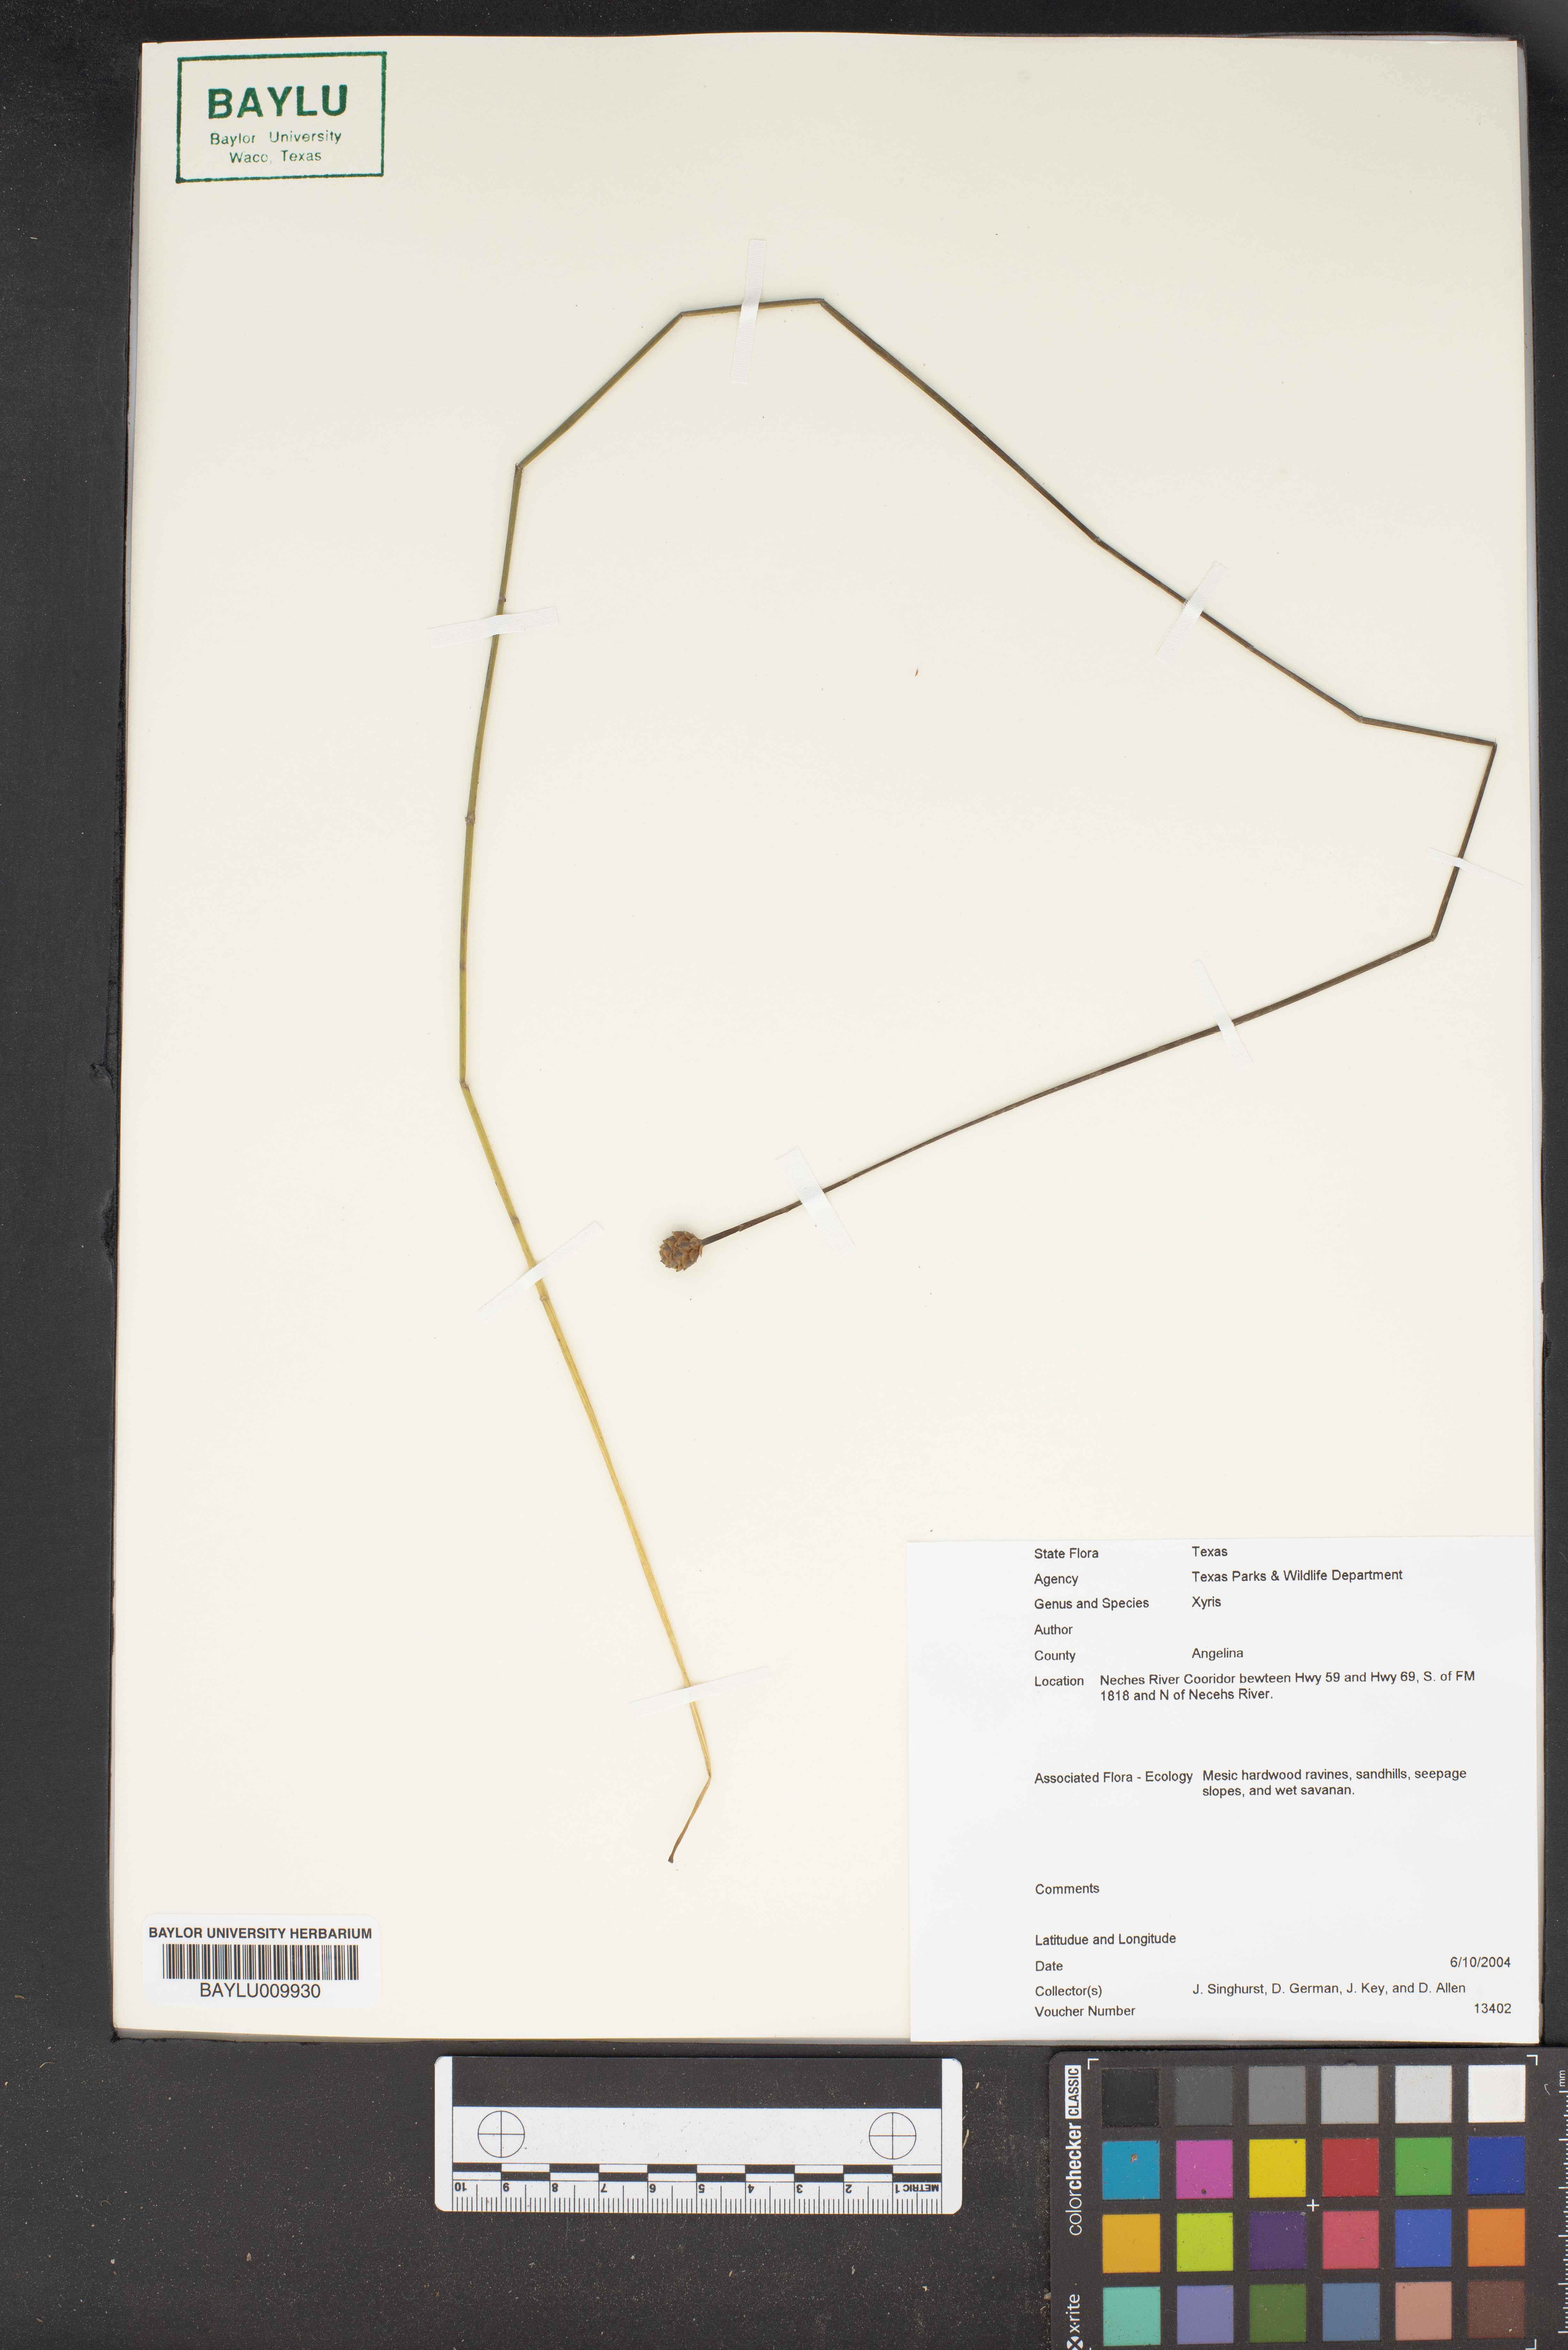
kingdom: Plantae
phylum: Tracheophyta
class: Liliopsida
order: Poales
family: Xyridaceae
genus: Xyris
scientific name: Xyris
